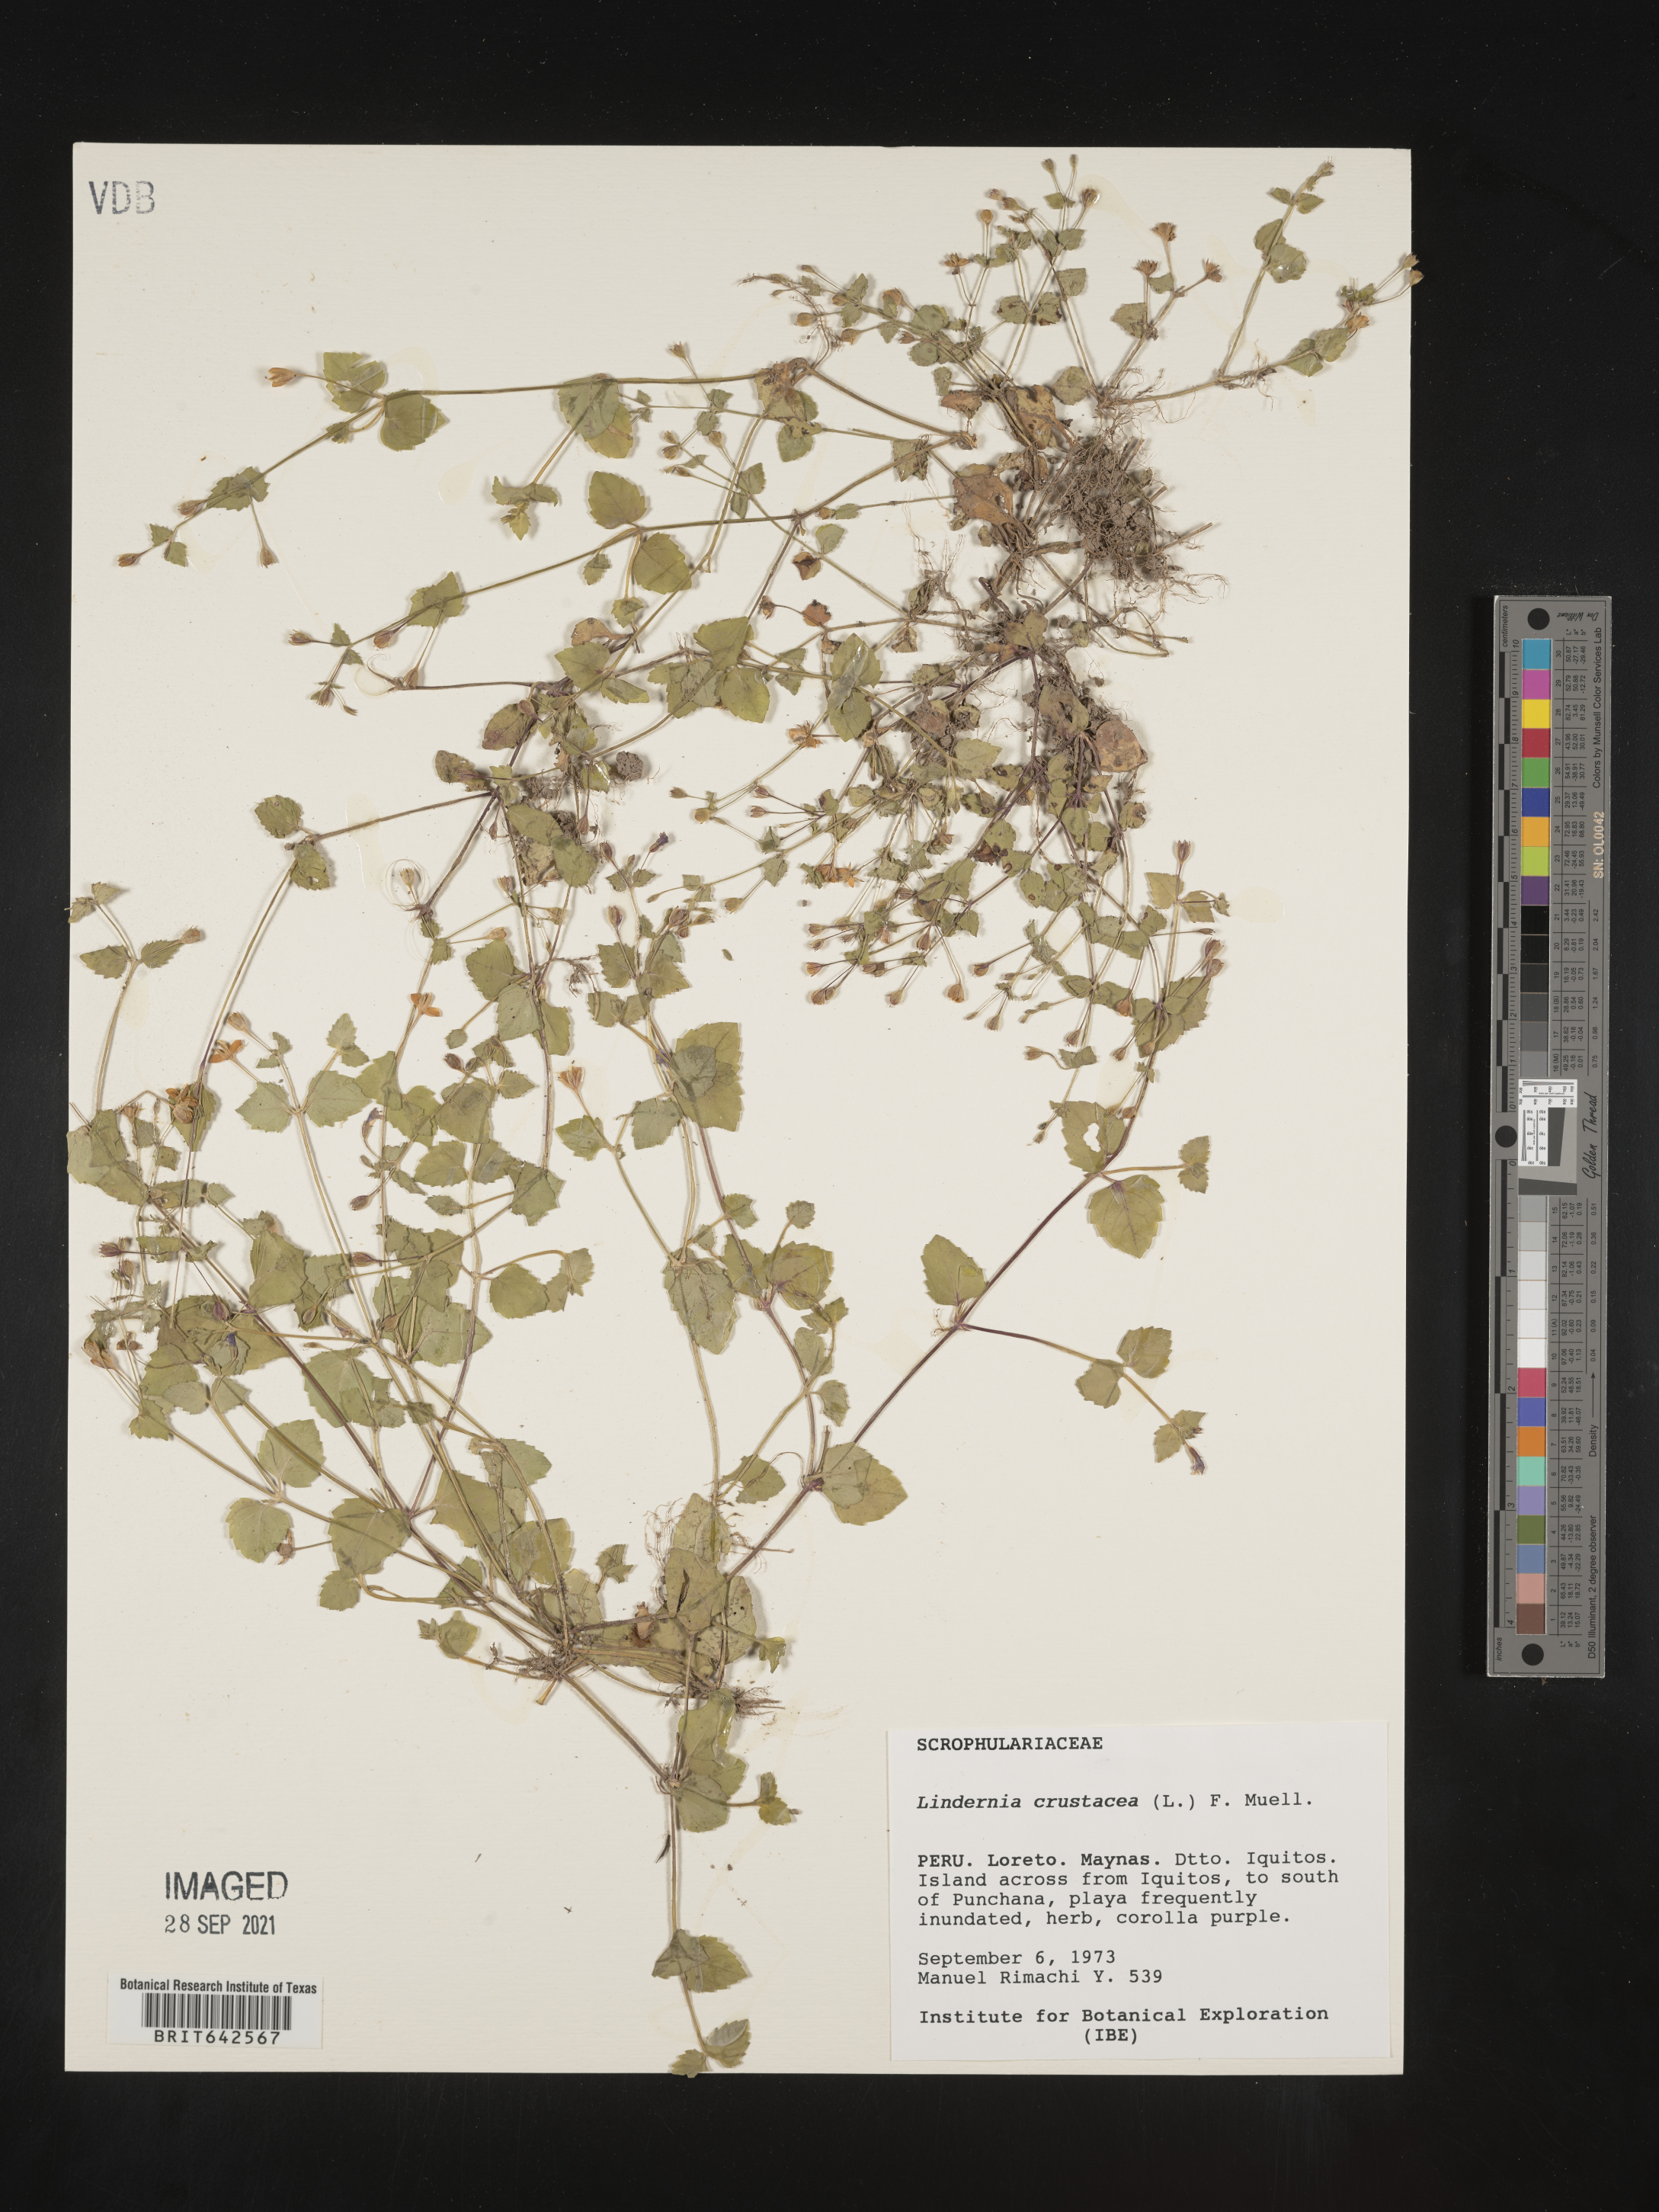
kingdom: Plantae
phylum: Tracheophyta
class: Magnoliopsida
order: Lamiales
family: Linderniaceae
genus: Lindernia
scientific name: Lindernia
